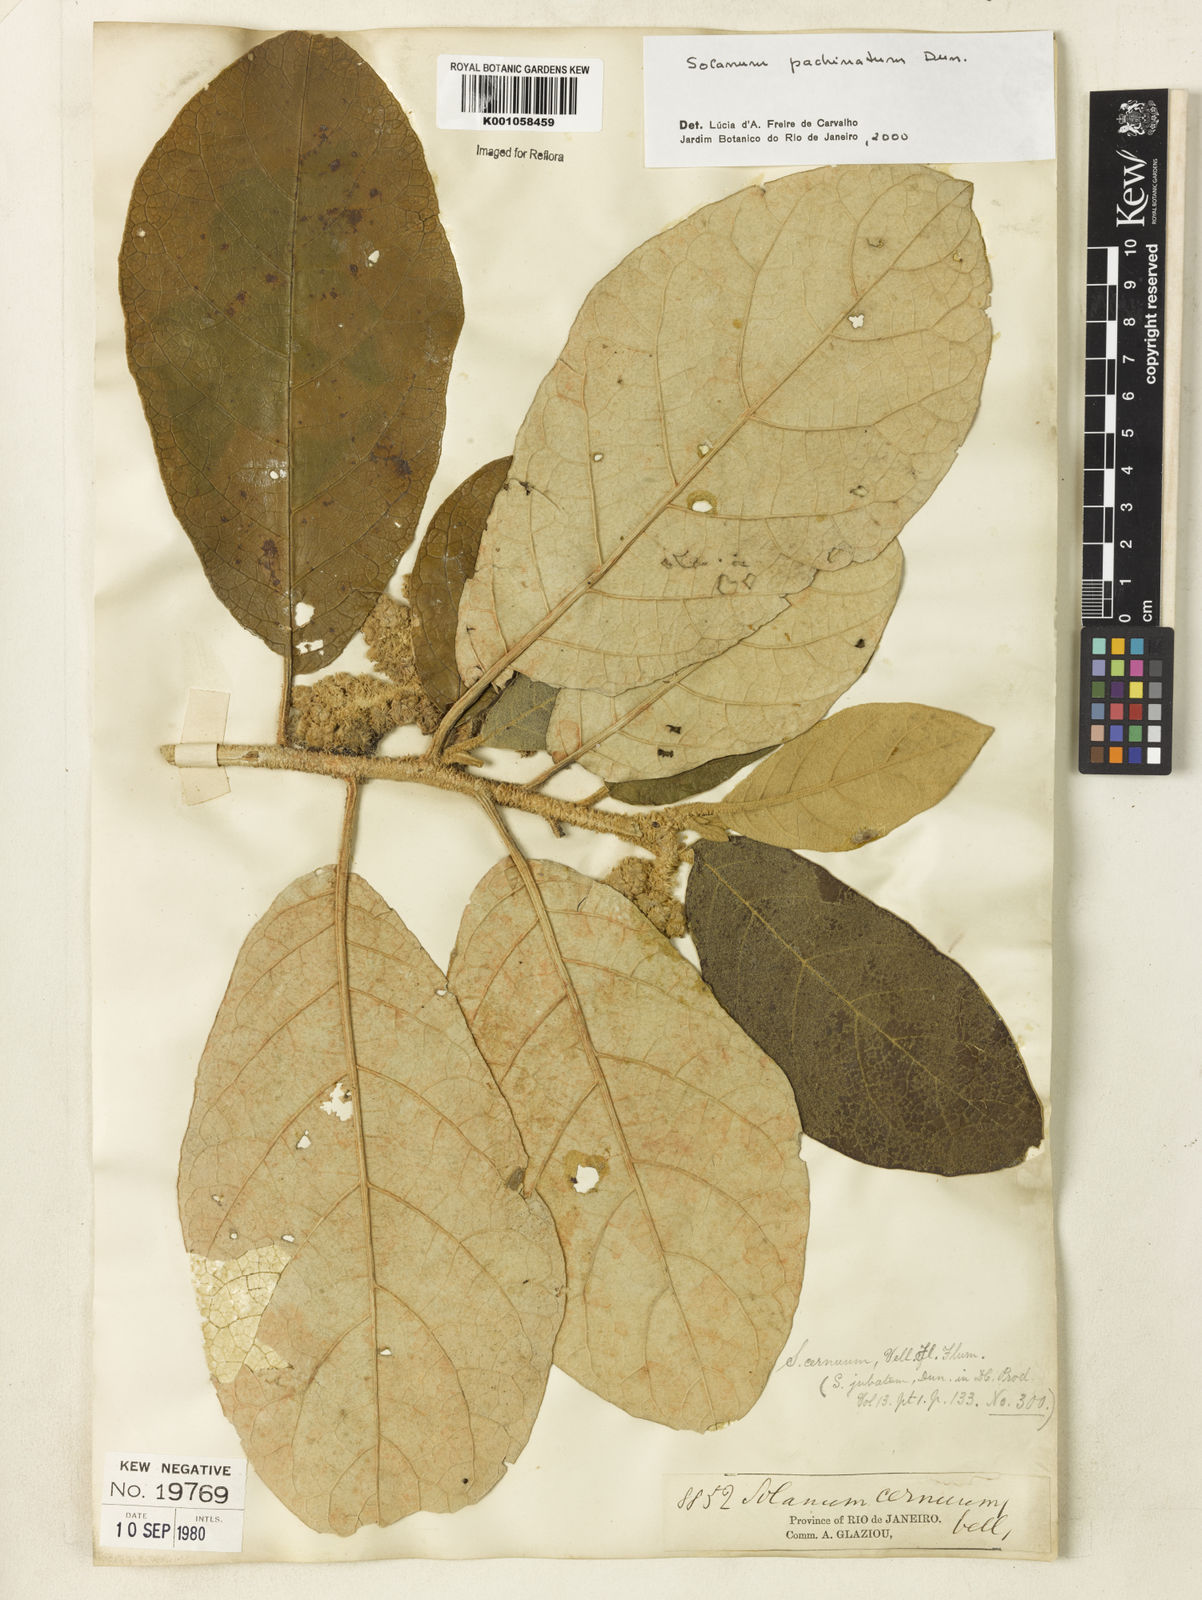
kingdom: Plantae
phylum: Tracheophyta
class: Magnoliopsida
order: Solanales
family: Solanaceae
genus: Solanum
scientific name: Solanum
